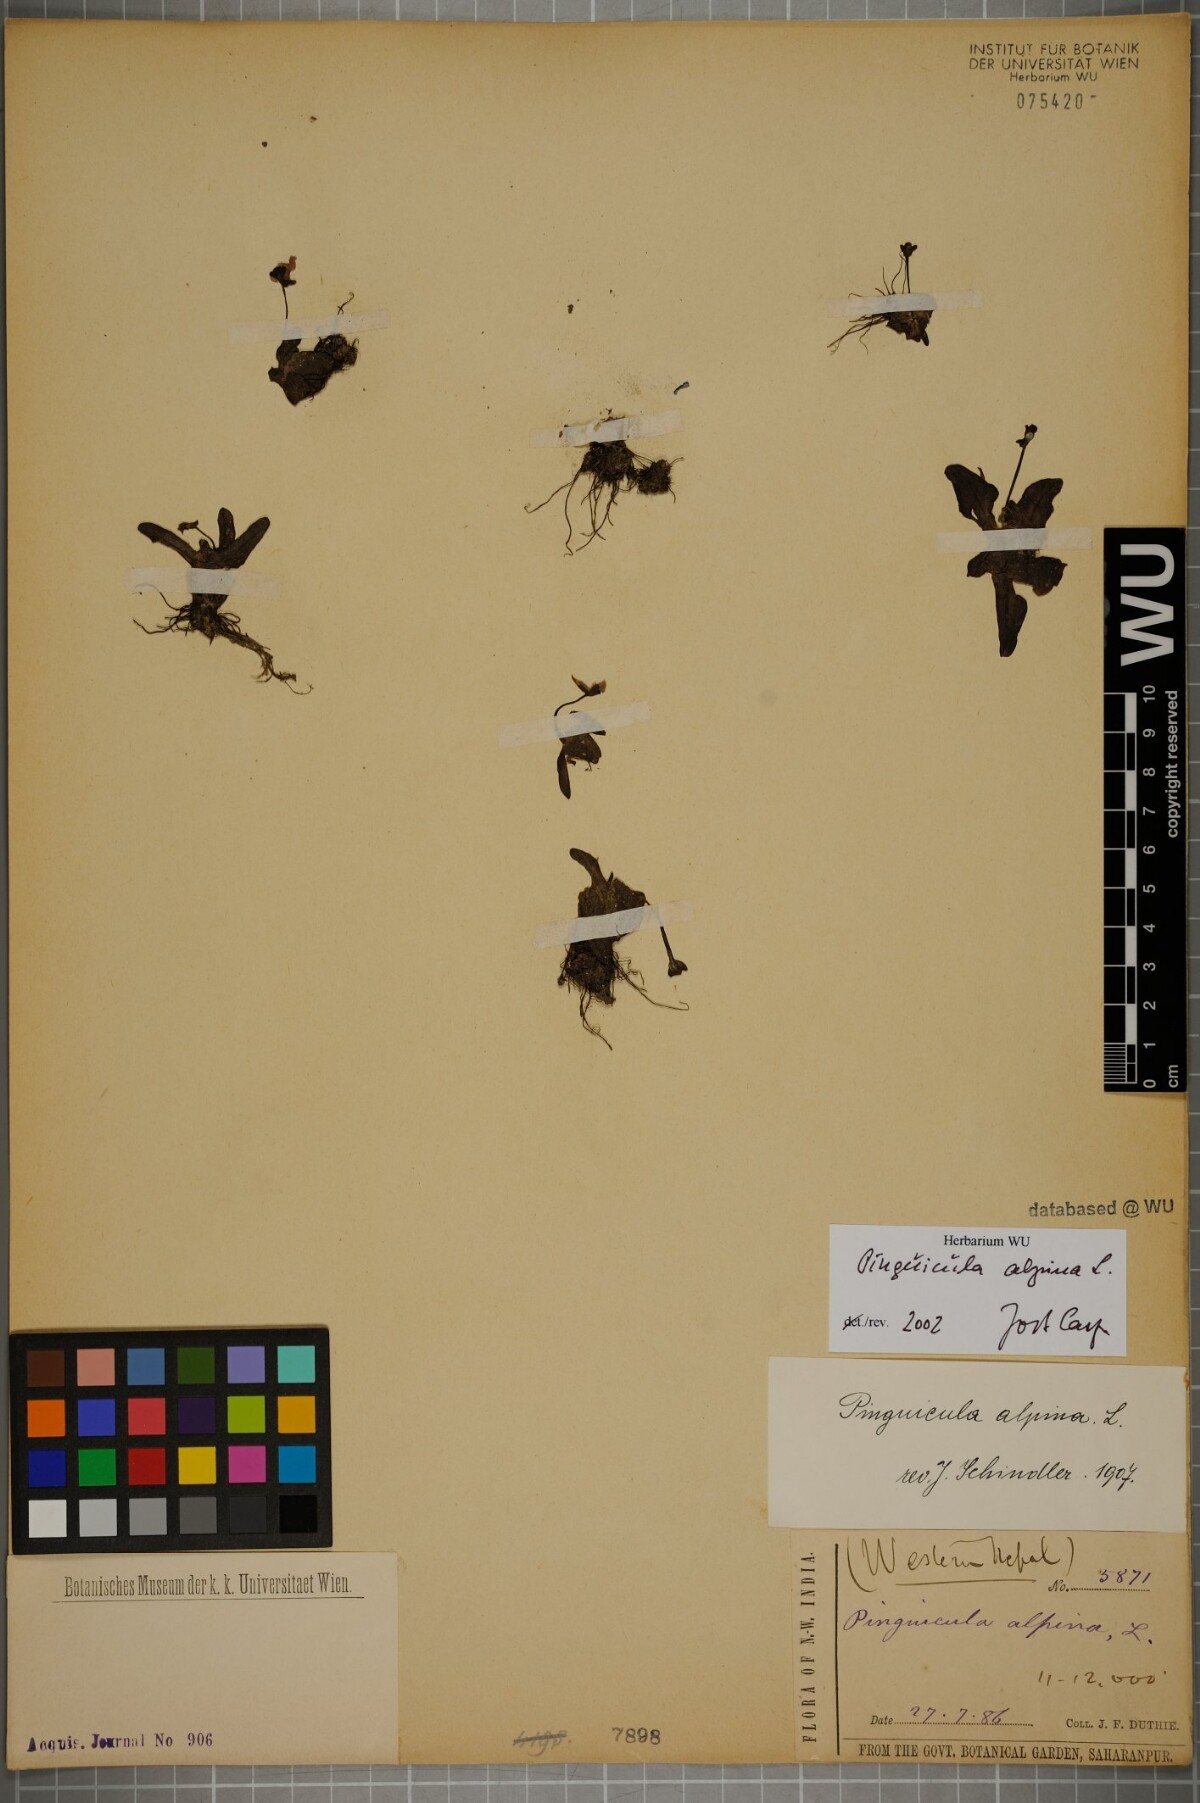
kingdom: Plantae
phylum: Tracheophyta
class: Magnoliopsida
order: Lamiales
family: Lentibulariaceae
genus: Pinguicula
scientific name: Pinguicula alpina
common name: Alpine butterwort
